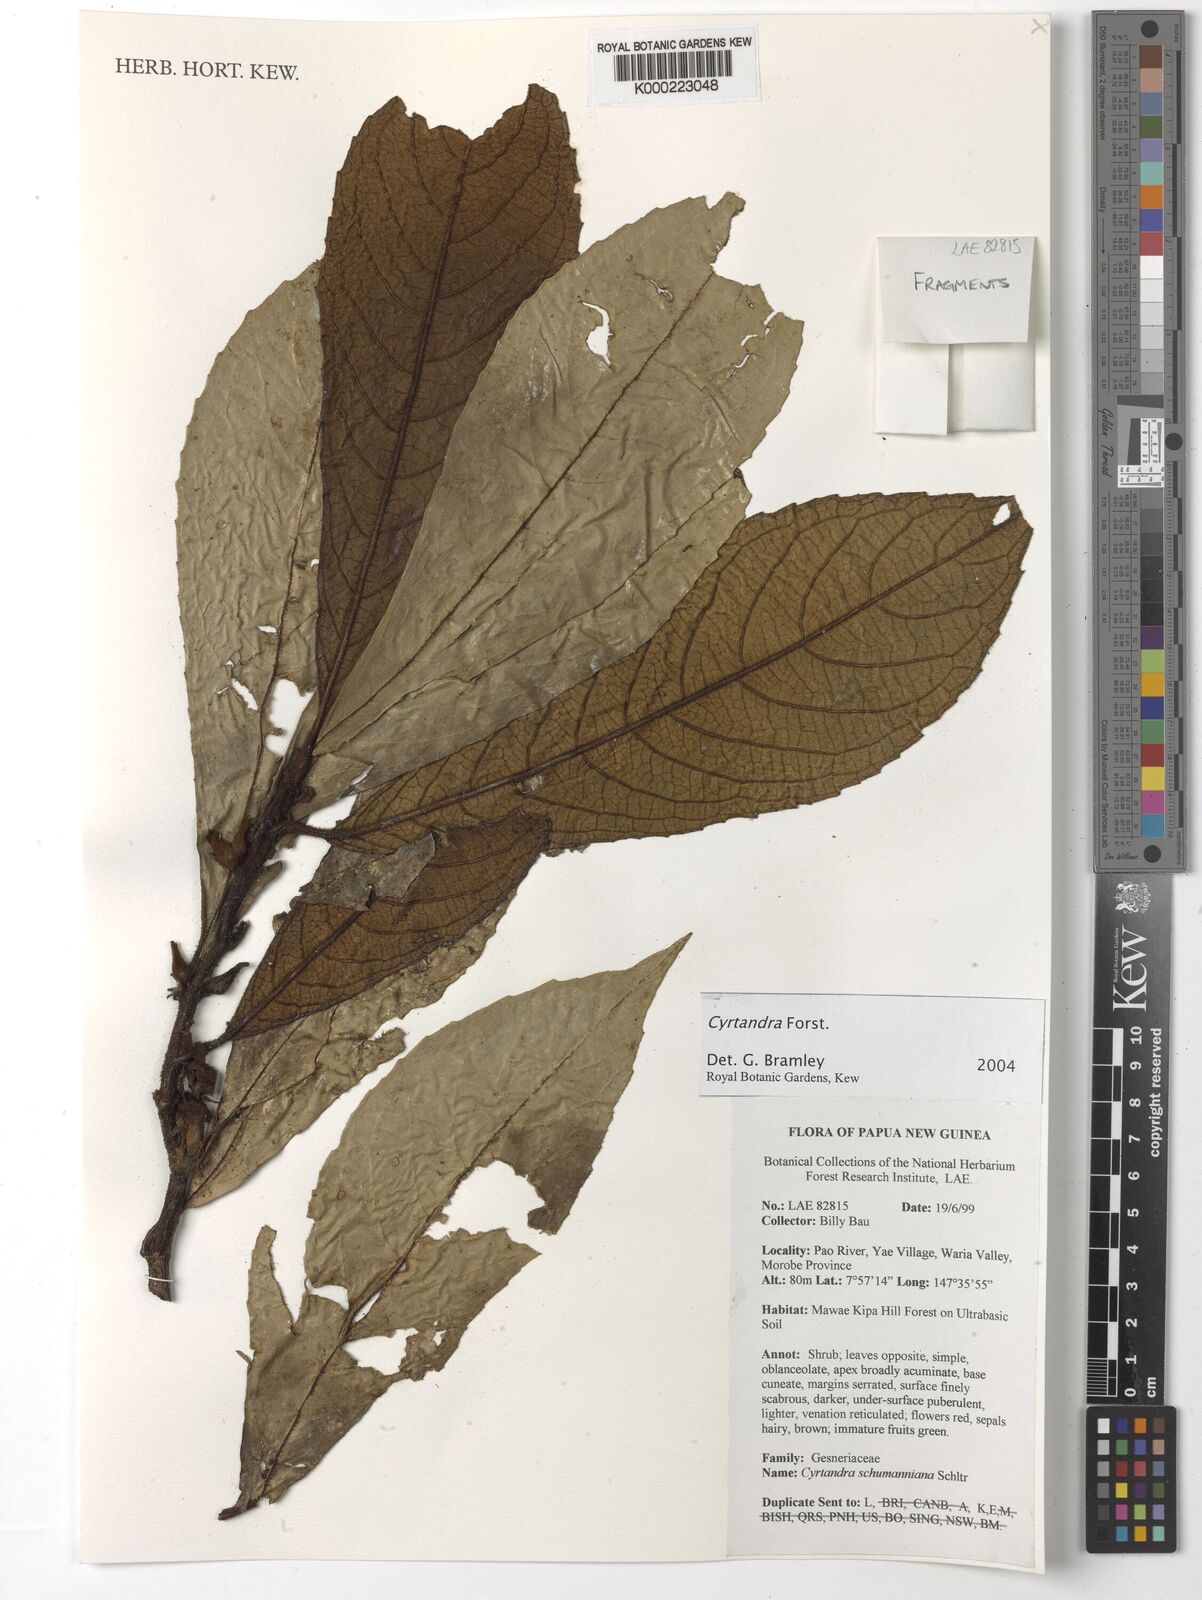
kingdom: Plantae
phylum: Tracheophyta
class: Magnoliopsida
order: Lamiales
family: Gesneriaceae
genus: Cyrtandra
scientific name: Cyrtandra
